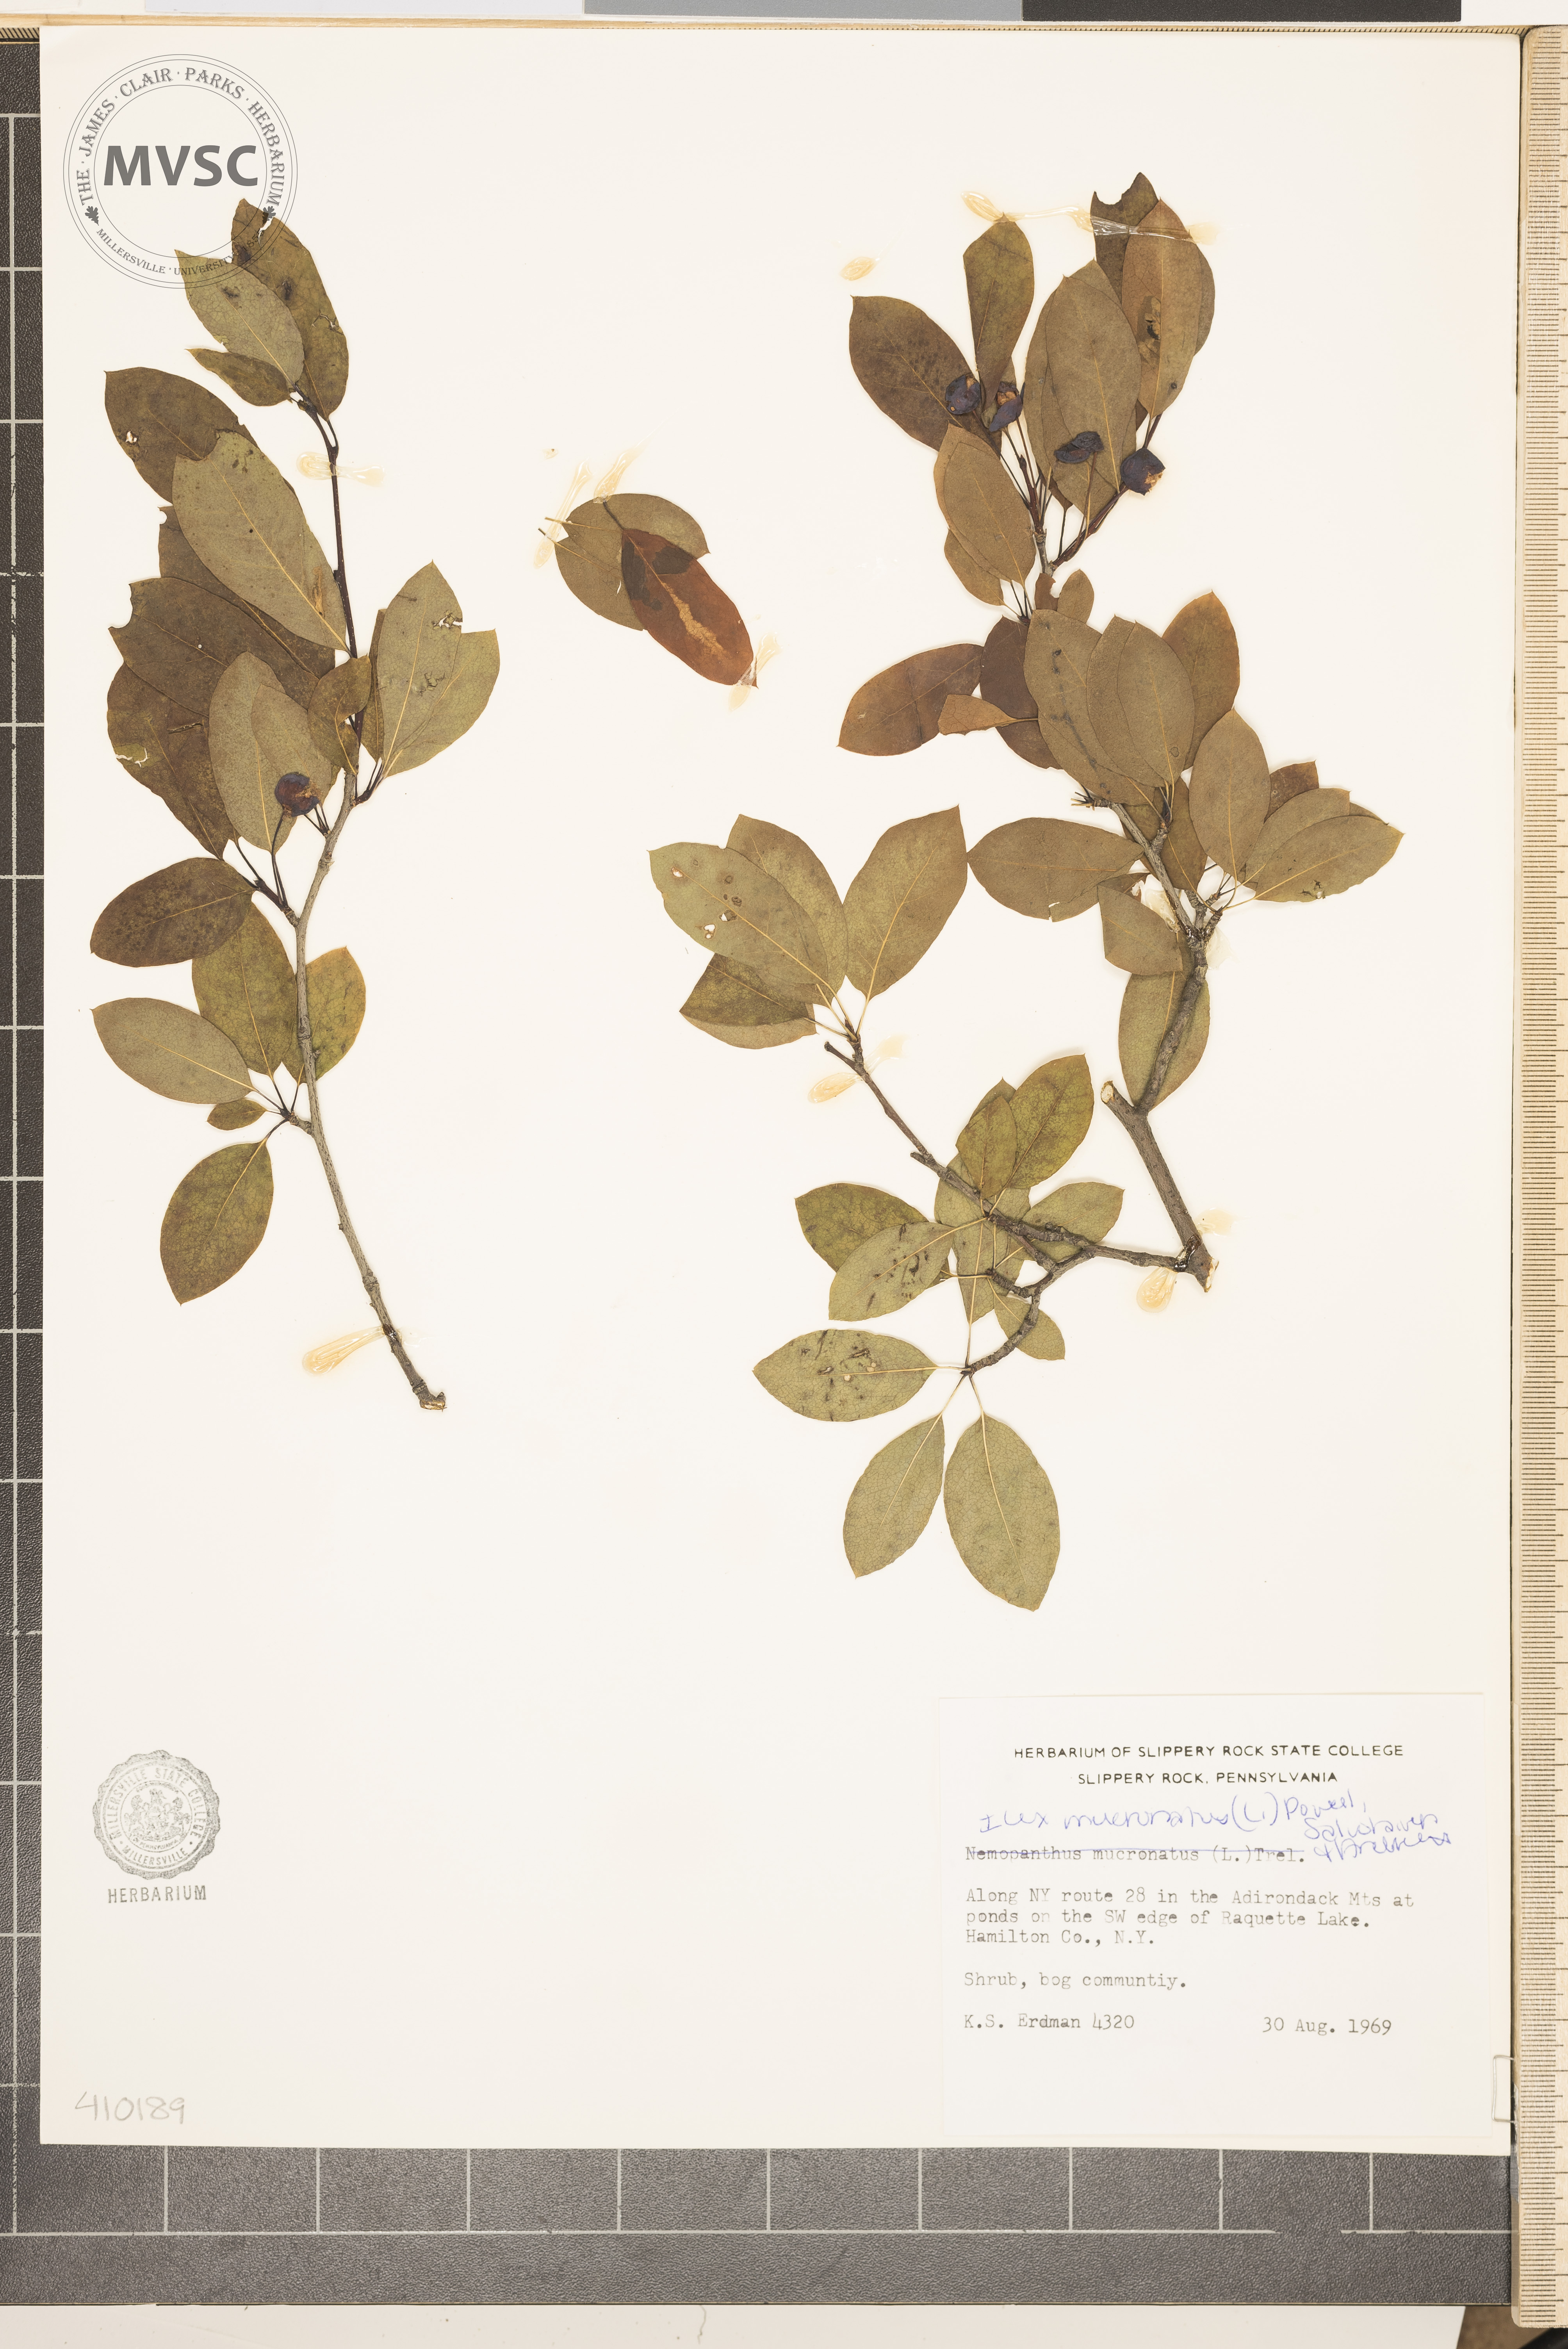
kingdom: Plantae
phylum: Tracheophyta
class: Magnoliopsida
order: Aquifoliales
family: Aquifoliaceae
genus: Ilex
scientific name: Ilex mucronata
